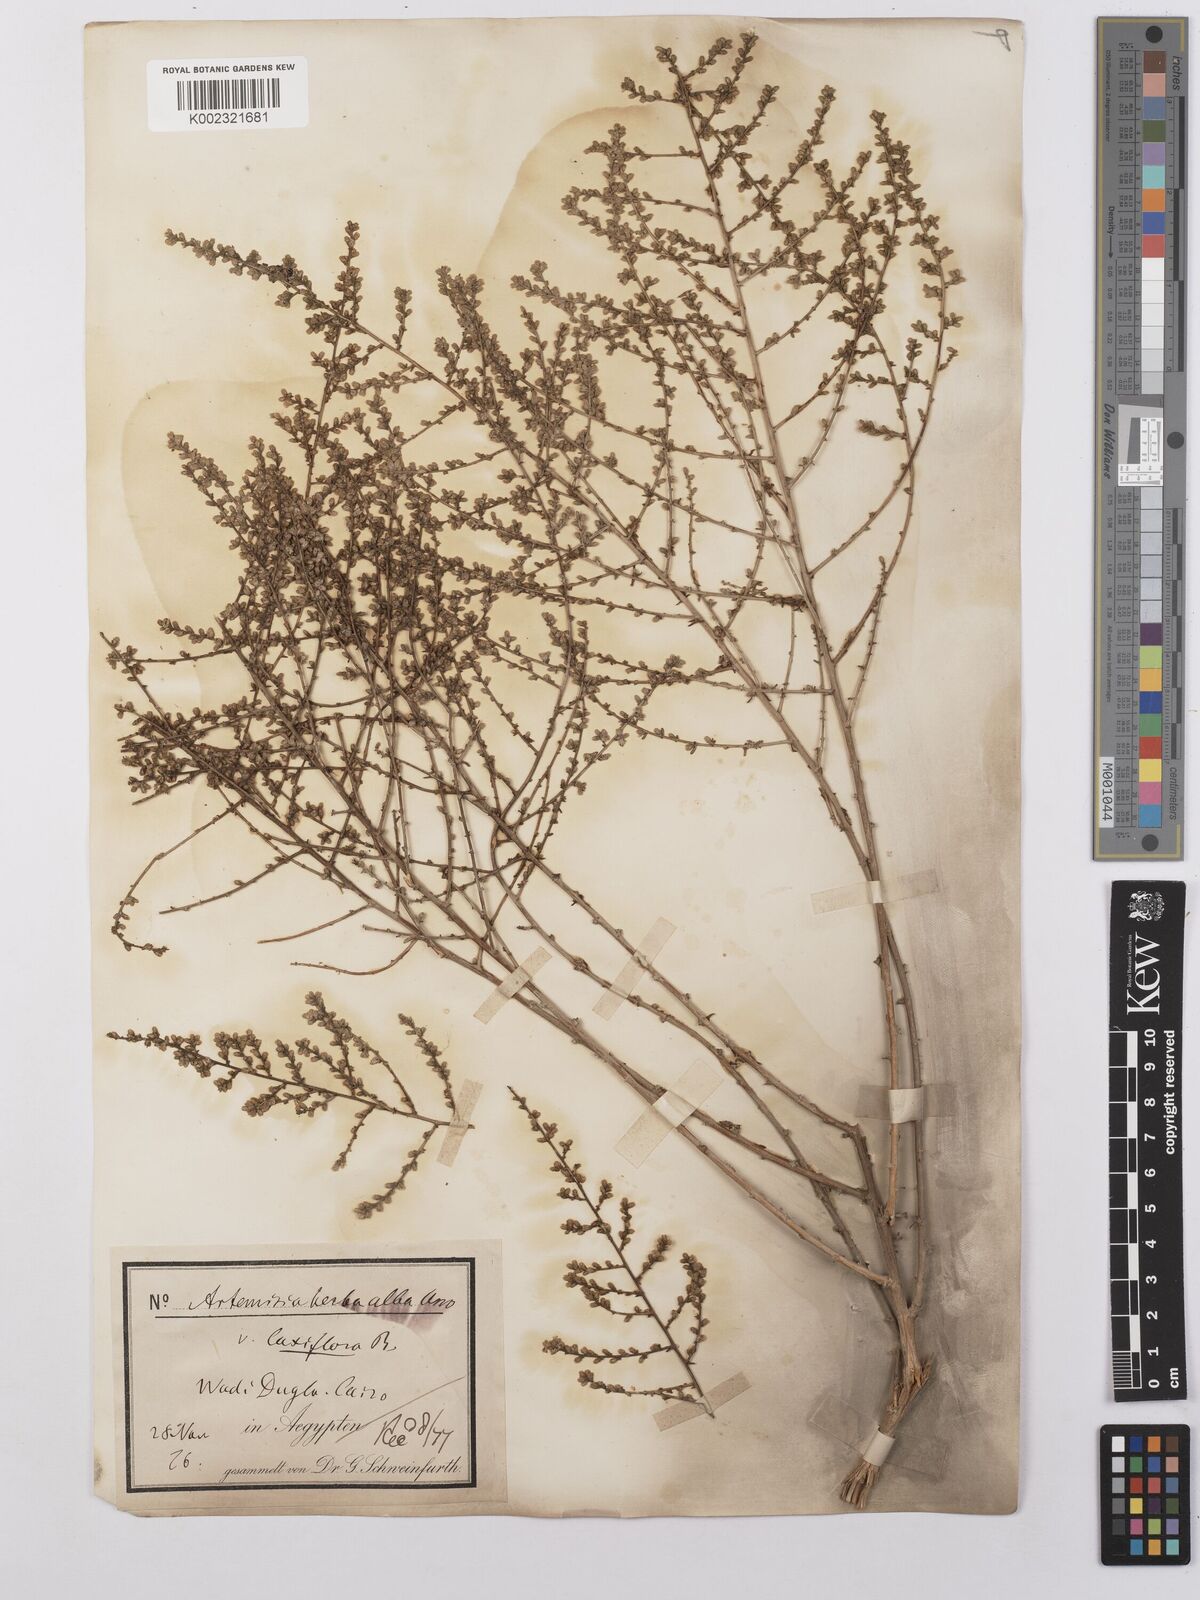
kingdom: Plantae
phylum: Tracheophyta
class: Magnoliopsida
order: Asterales
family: Asteraceae
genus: Artemisia
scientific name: Artemisia herba-alba
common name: White wormwood
